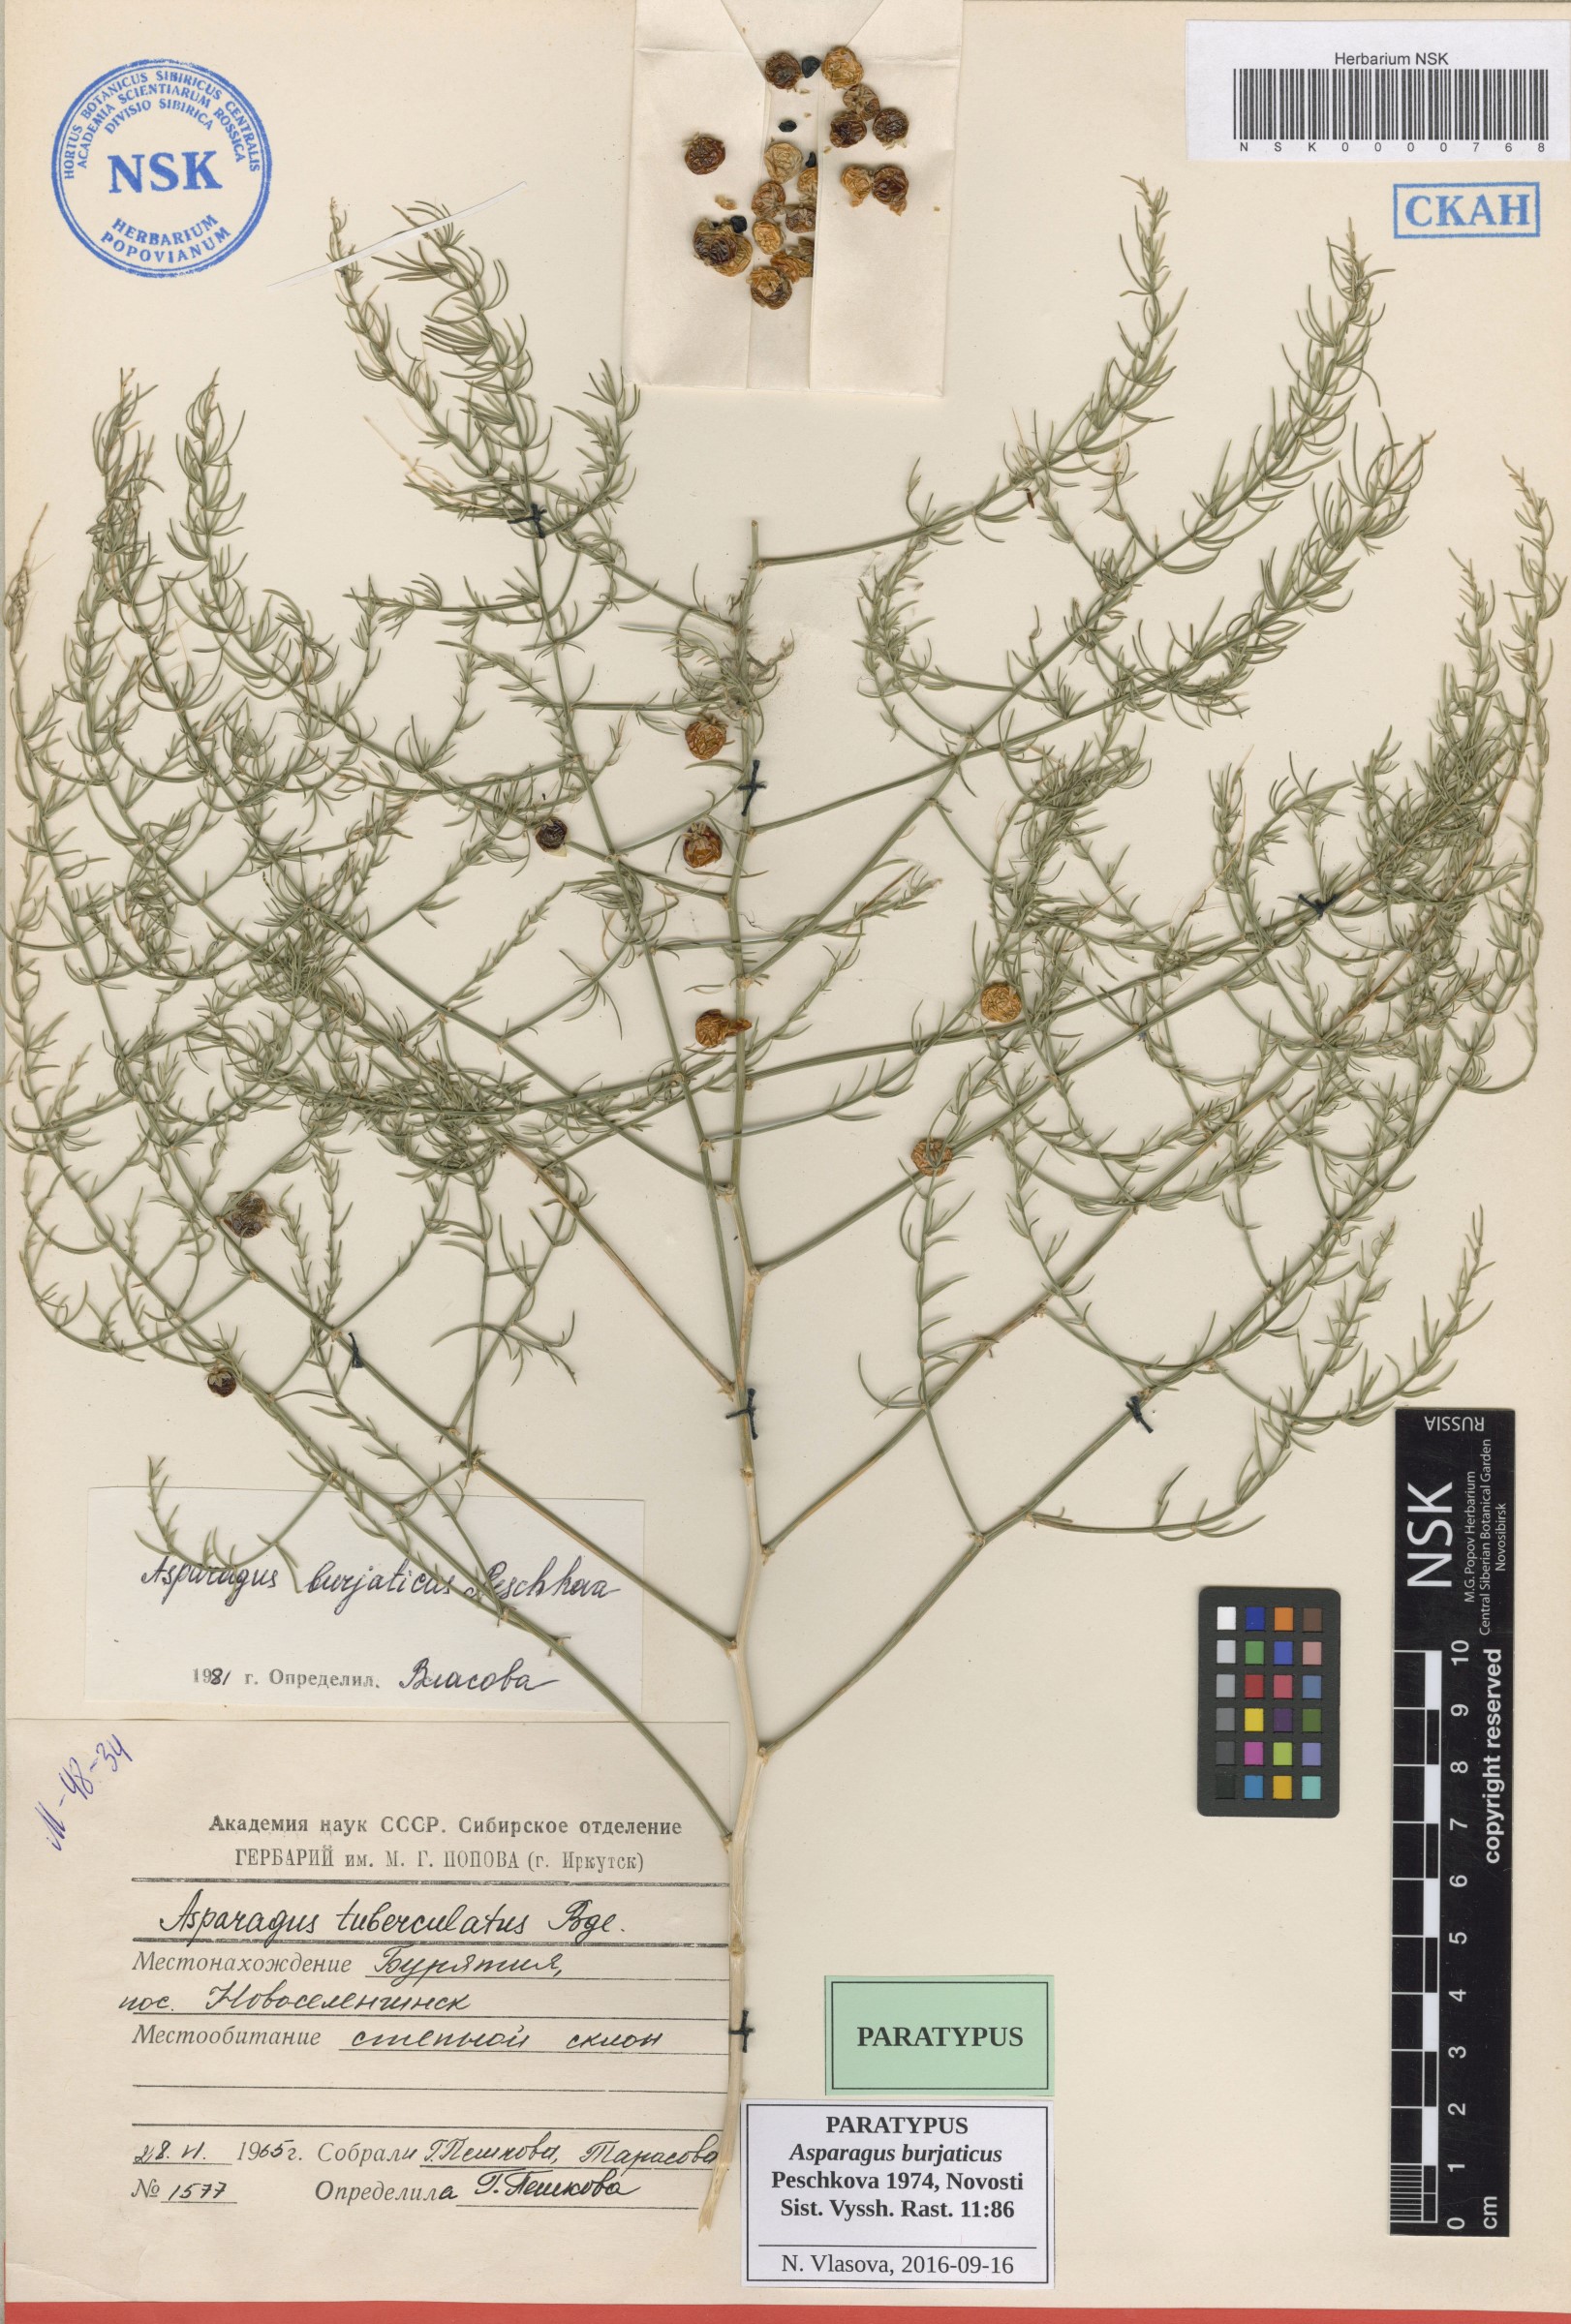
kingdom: Plantae
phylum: Tracheophyta
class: Liliopsida
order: Asparagales
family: Asparagaceae
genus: Asparagus
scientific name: Asparagus burjaticus
